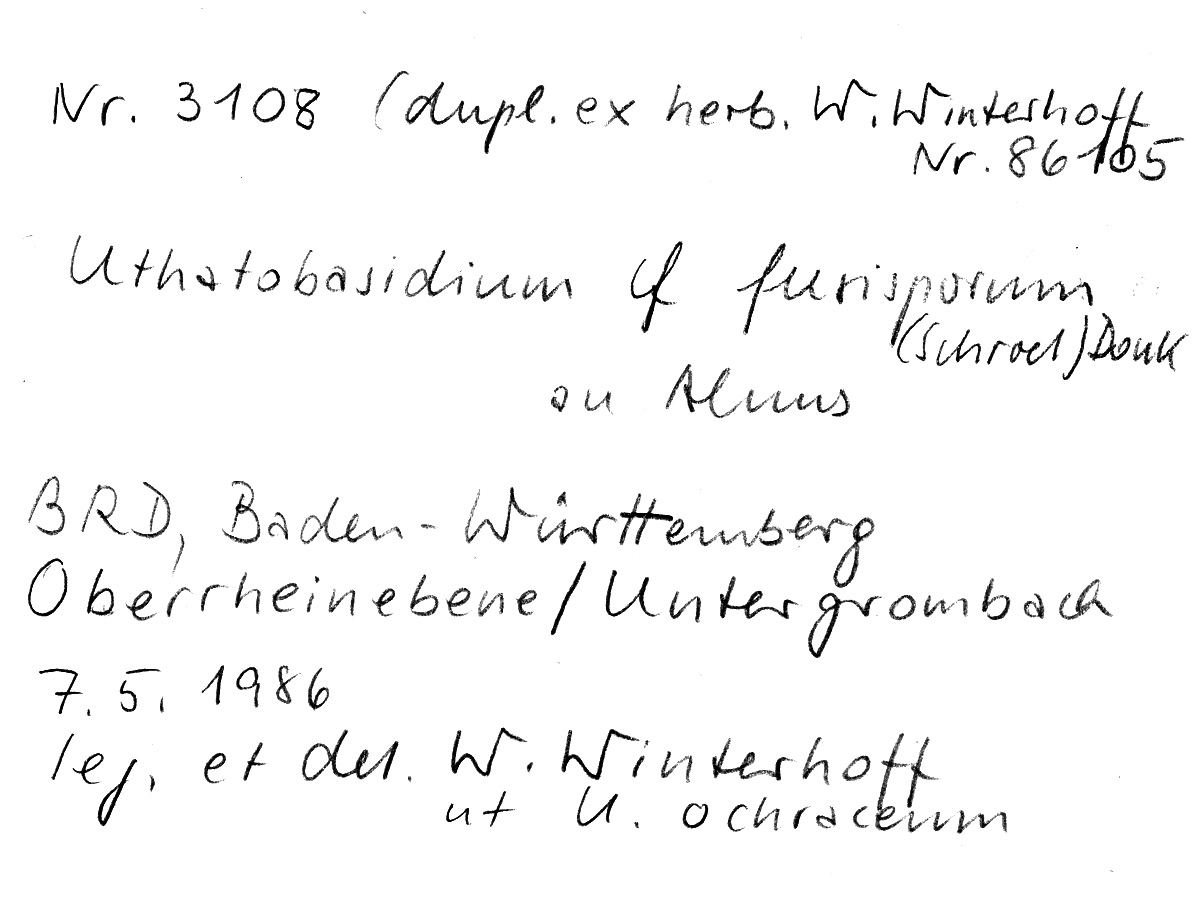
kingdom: Fungi
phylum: Basidiomycota
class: Agaricomycetes
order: Cantharellales
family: Ceratobasidiaceae
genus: Rhizoctonia
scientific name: Rhizoctonia fusispora
